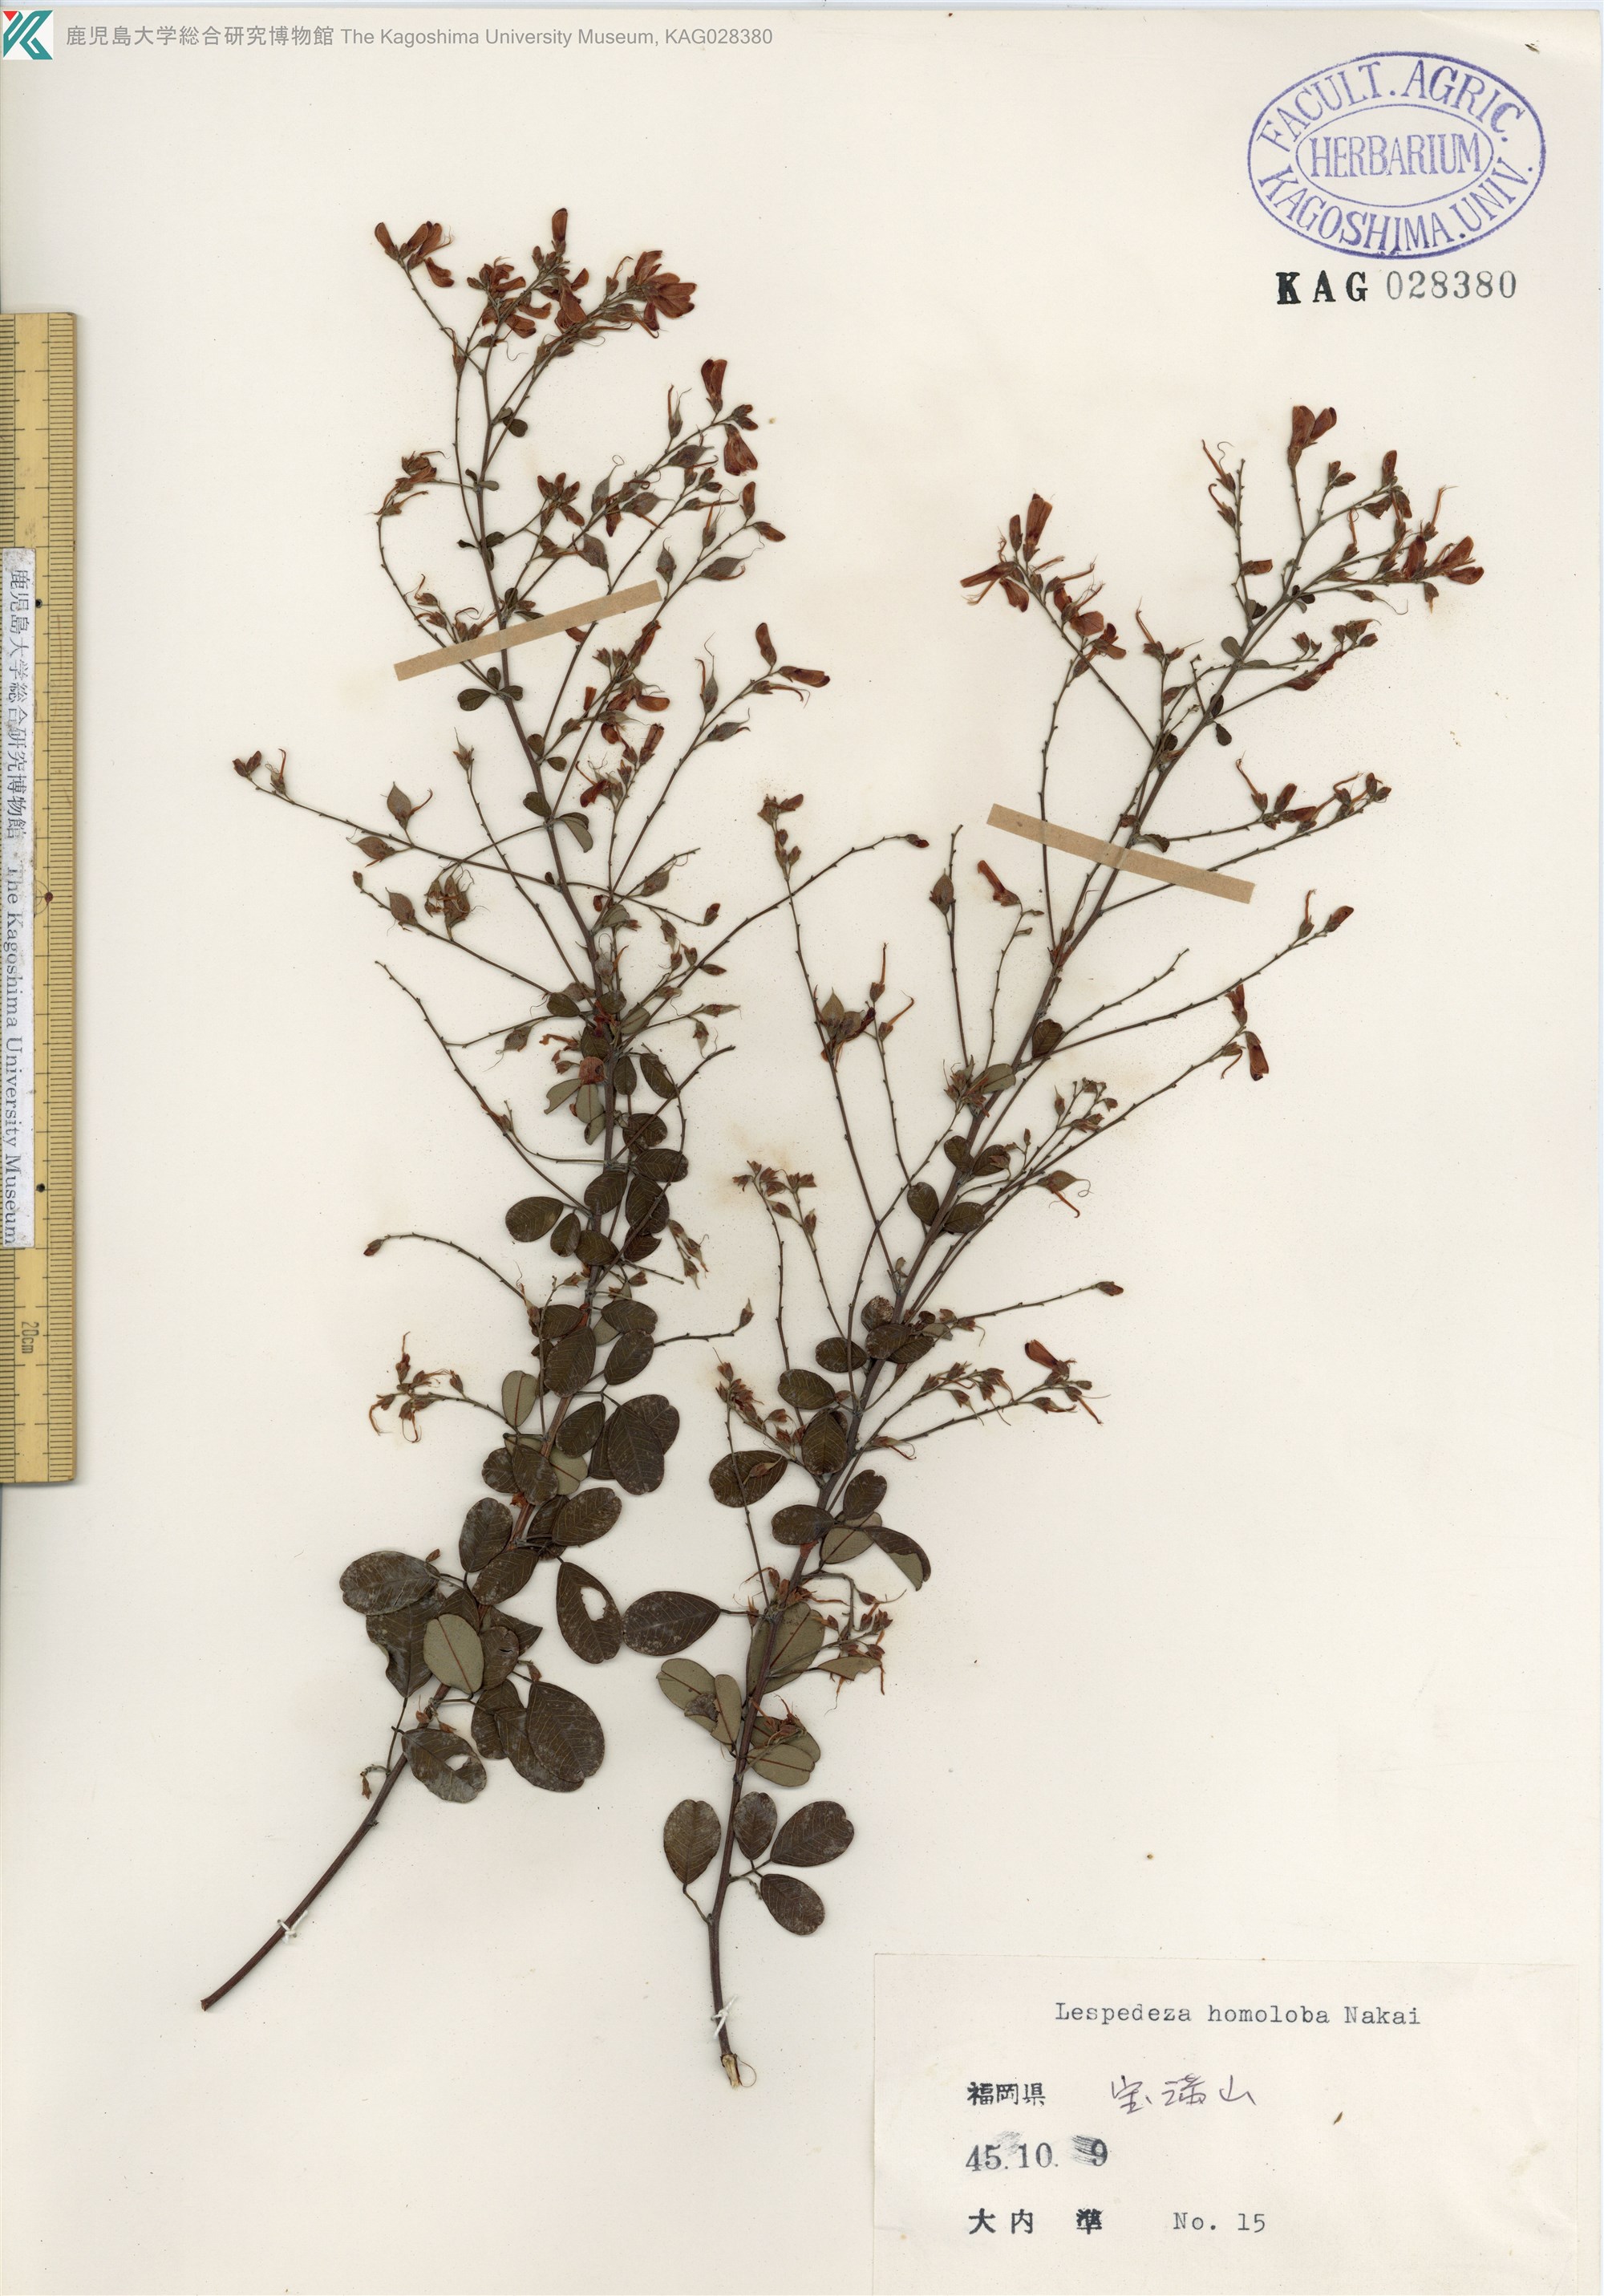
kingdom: Plantae
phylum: Tracheophyta
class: Magnoliopsida
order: Fabales
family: Fabaceae
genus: Lespedeza
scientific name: Lespedeza homoloba
